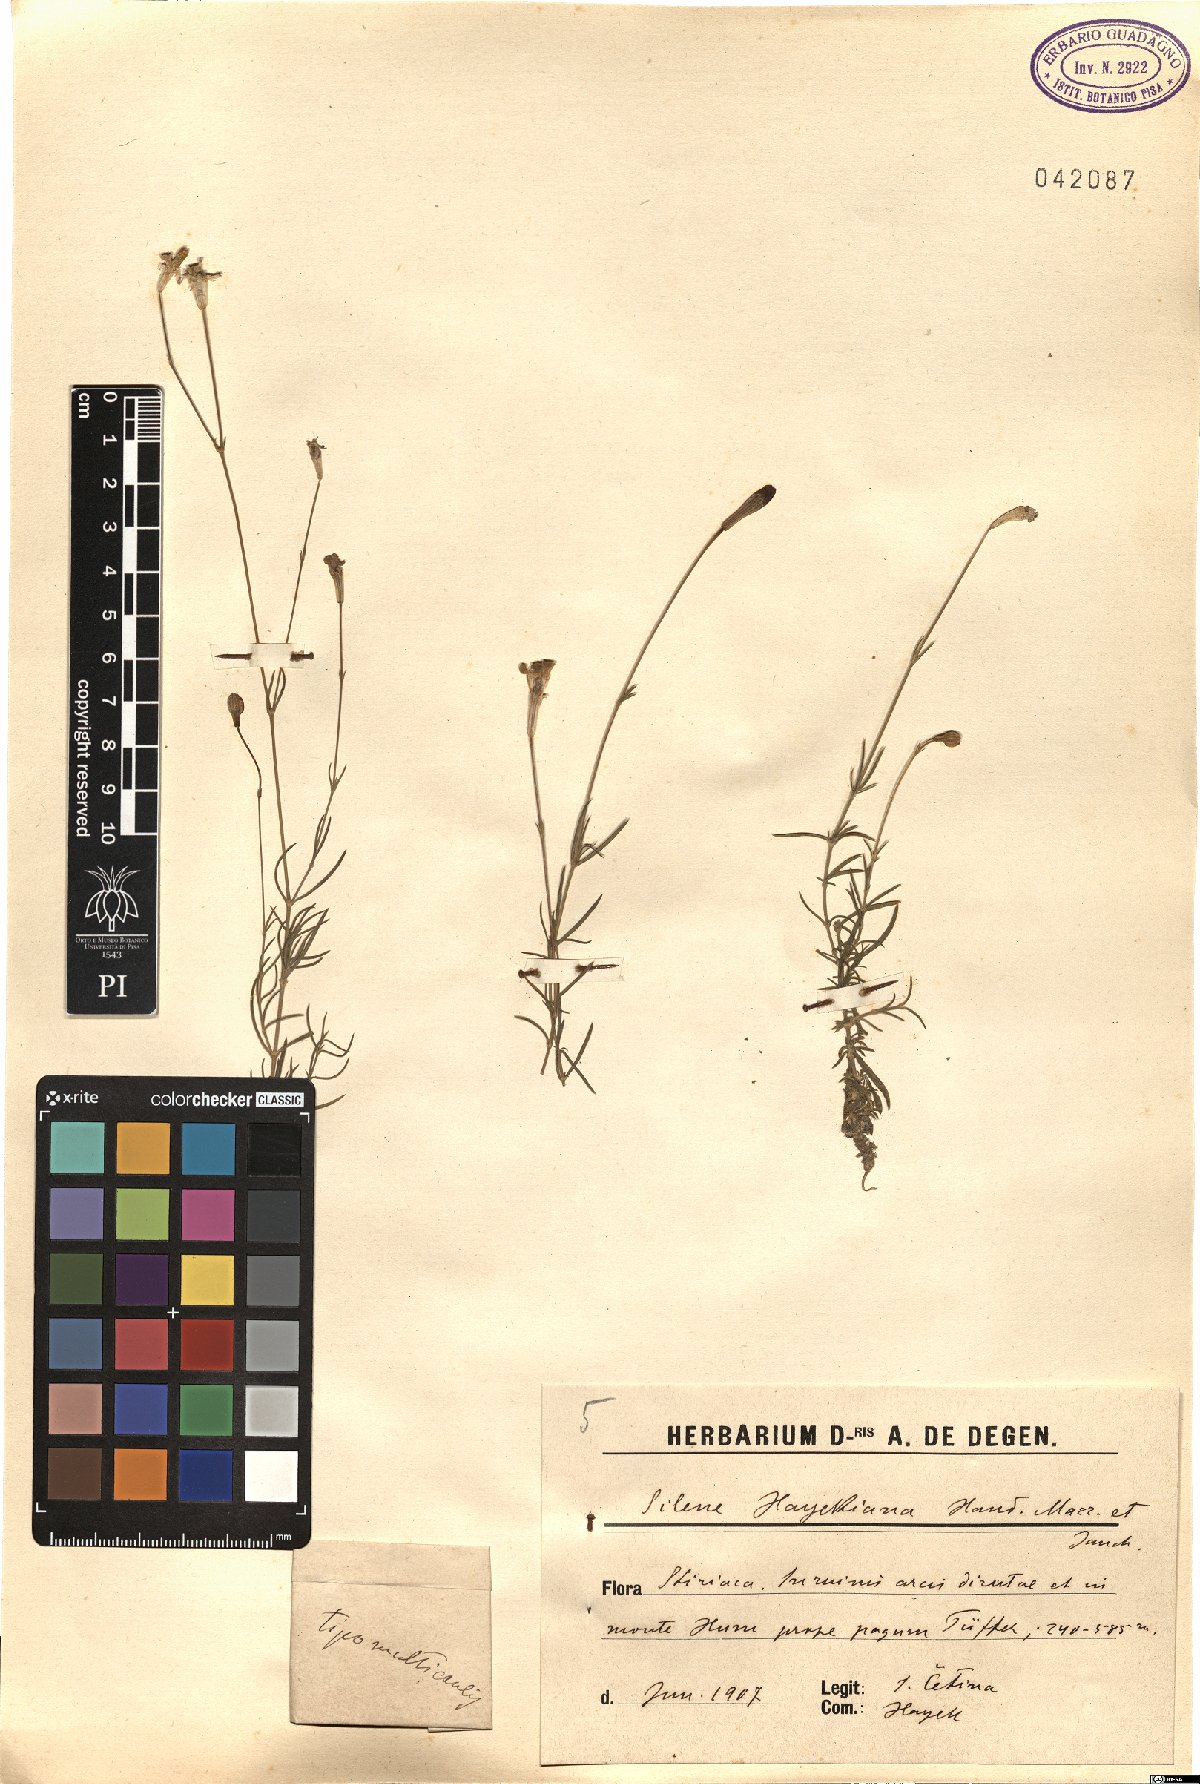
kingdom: Plantae
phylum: Tracheophyta
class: Magnoliopsida
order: Caryophyllales
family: Caryophyllaceae
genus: Silene
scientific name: Silene hayekiana
